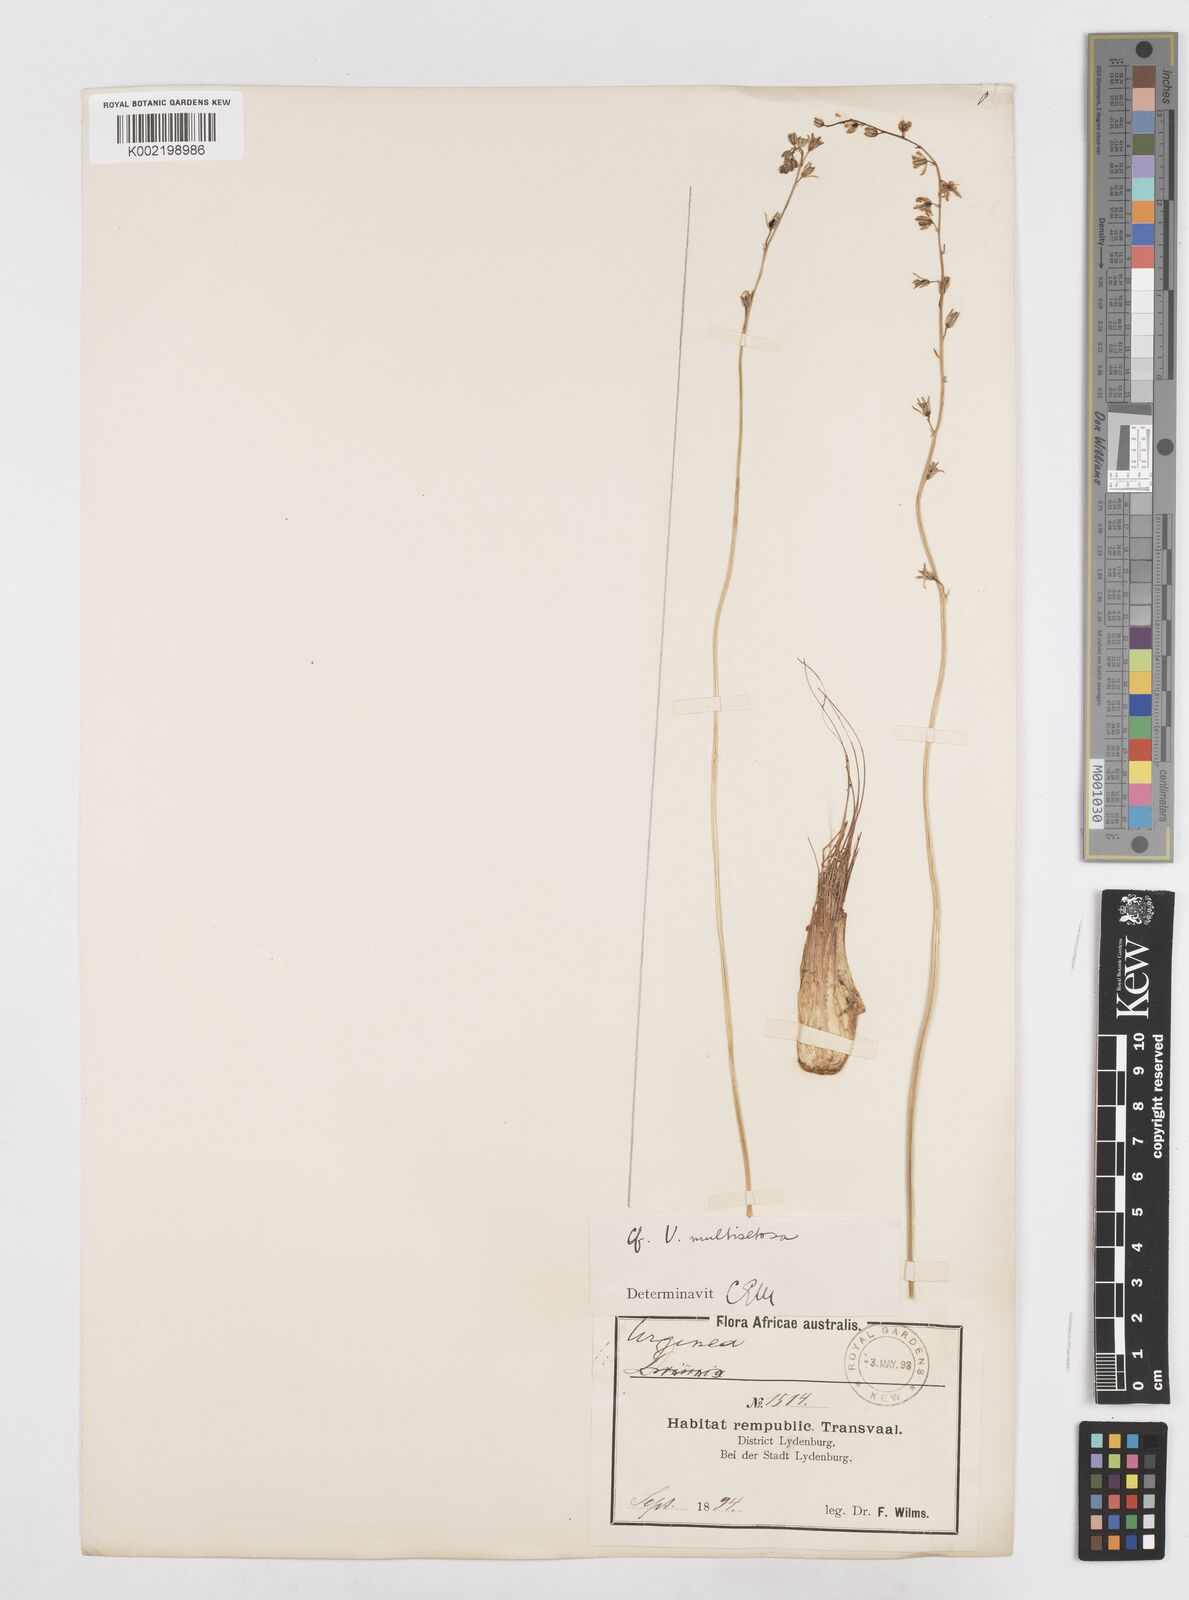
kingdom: Plantae
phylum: Tracheophyta
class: Liliopsida
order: Asparagales
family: Asparagaceae
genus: Drimia
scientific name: Drimia
